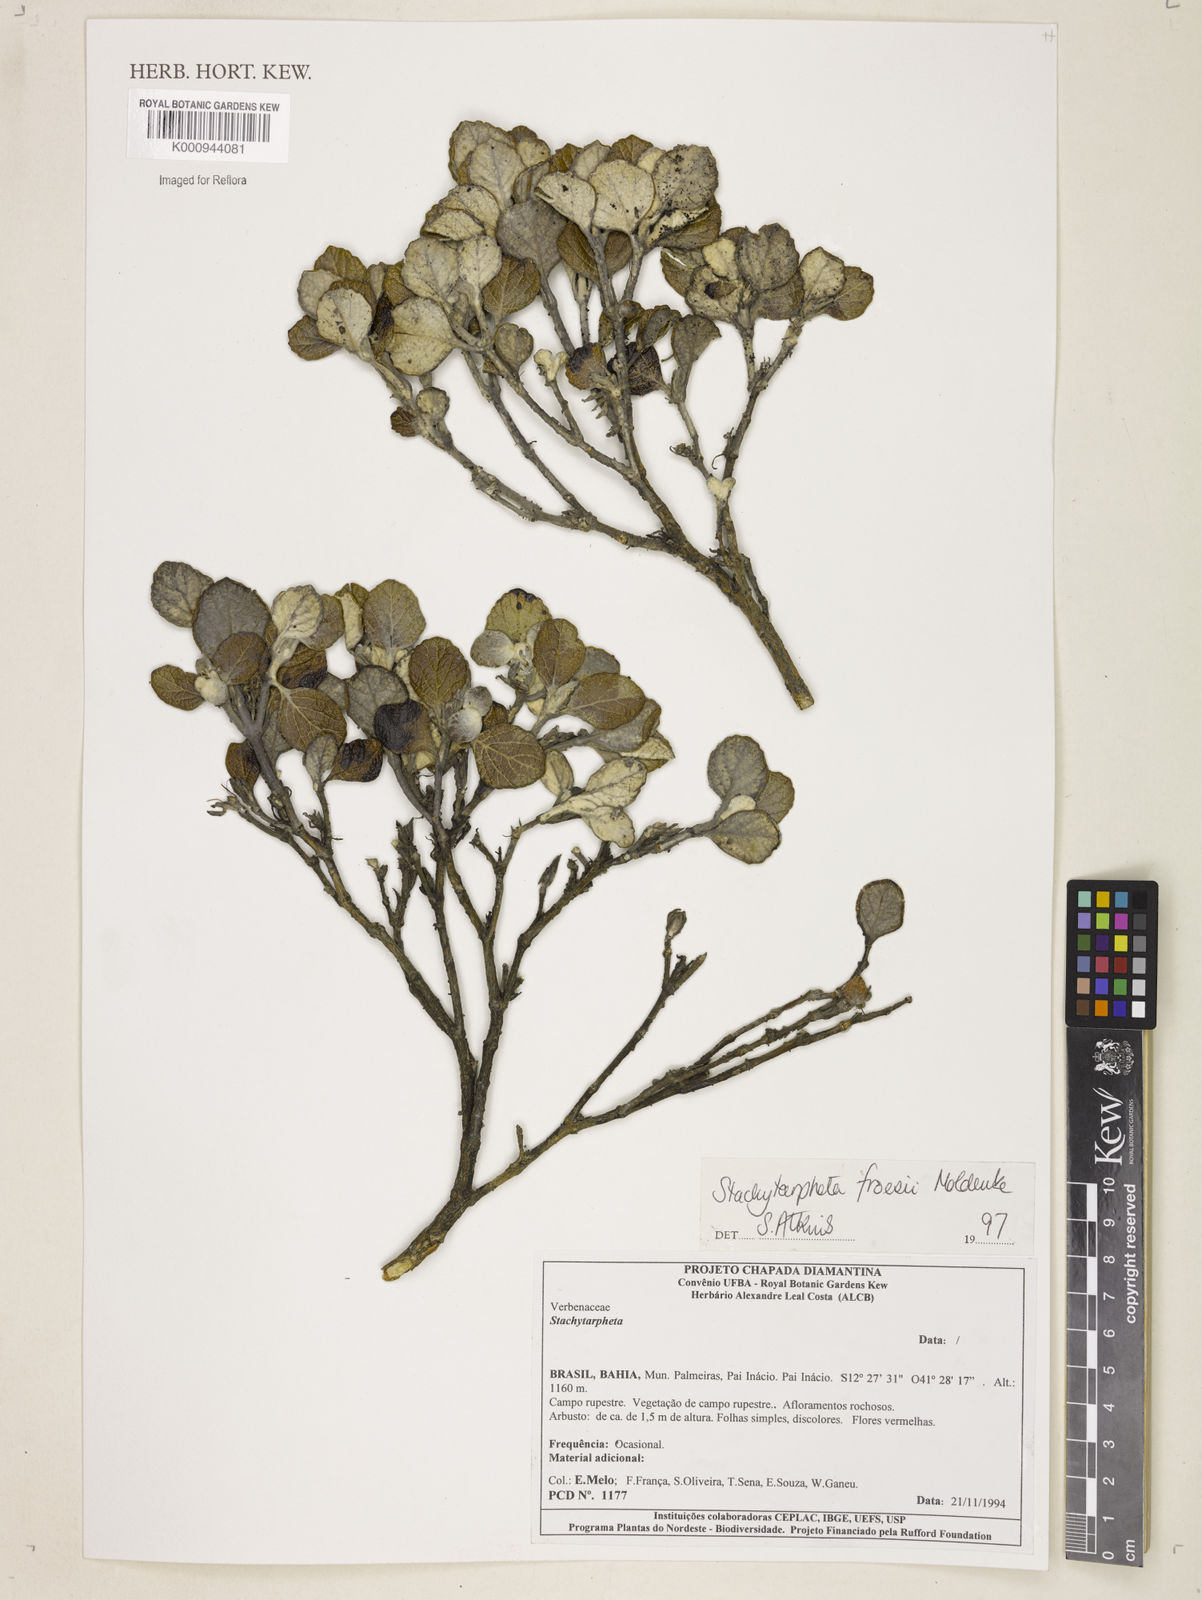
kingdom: Plantae
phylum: Tracheophyta
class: Magnoliopsida
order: Lamiales
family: Verbenaceae
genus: Stachytarpheta
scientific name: Stachytarpheta froesii
